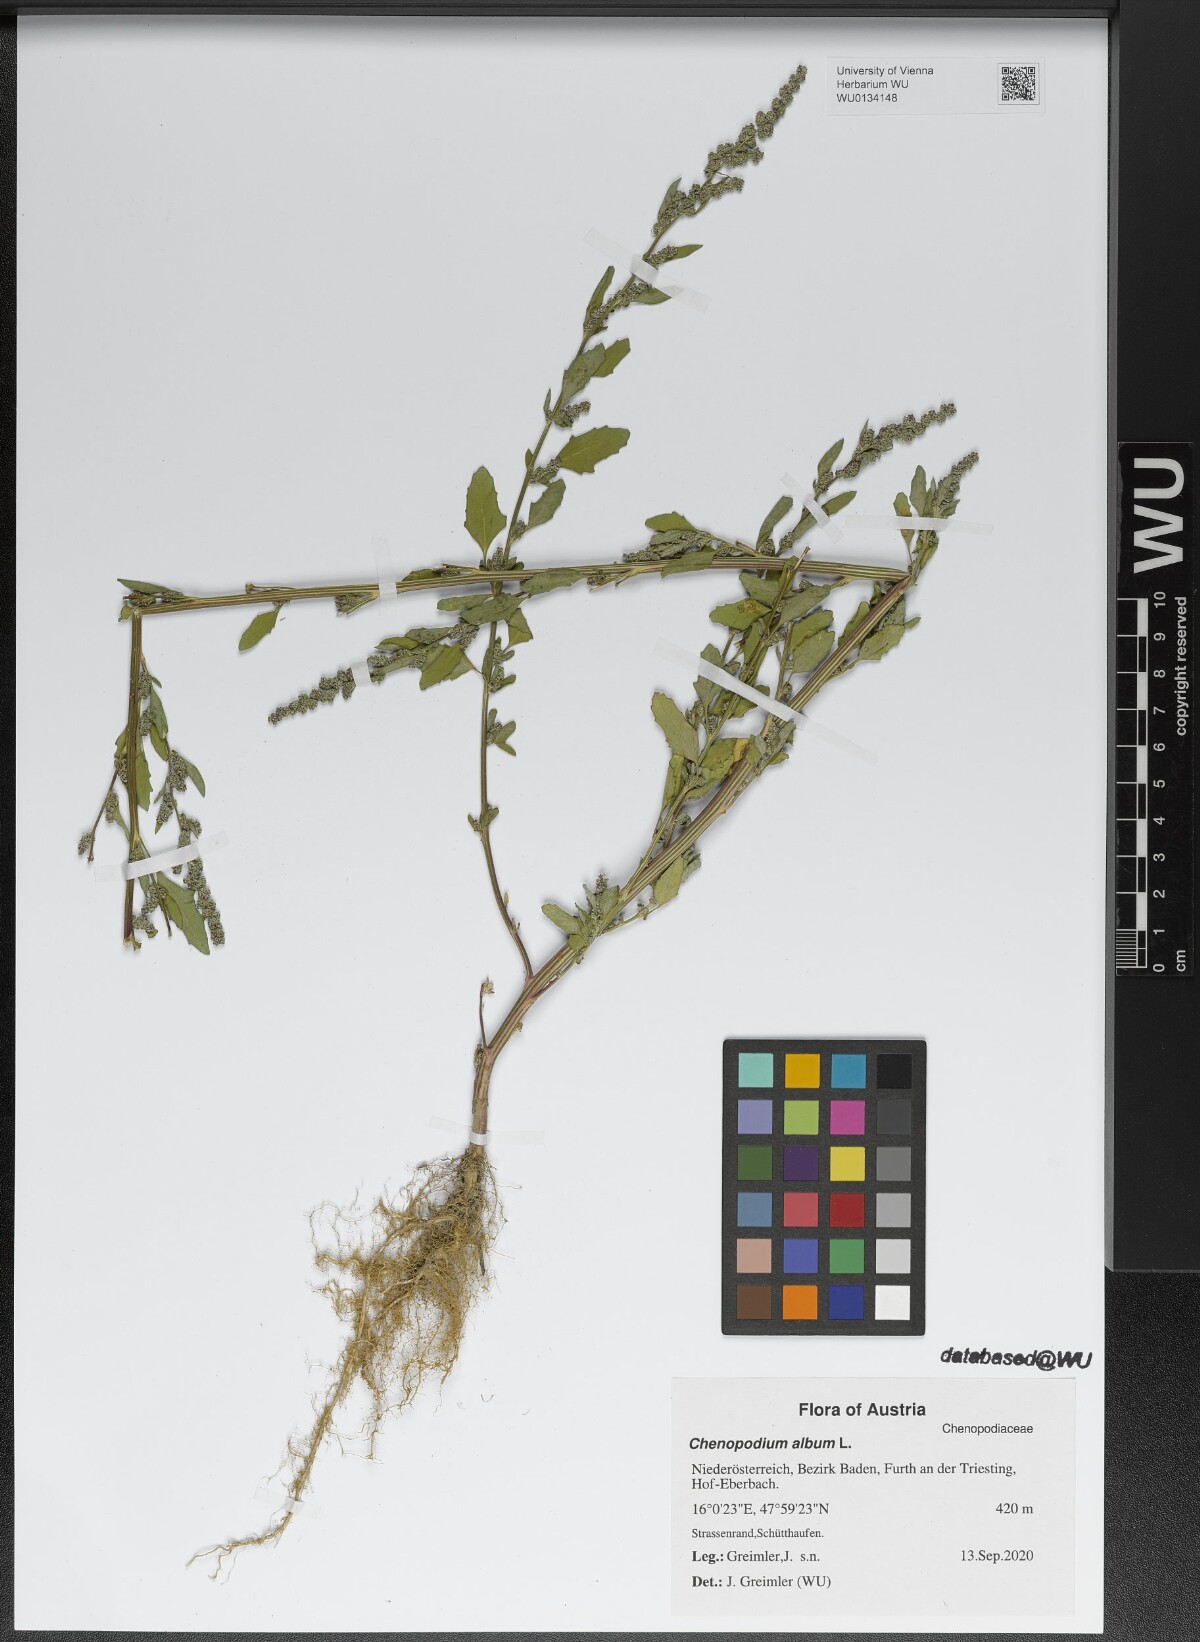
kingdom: Plantae
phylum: Tracheophyta
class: Magnoliopsida
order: Caryophyllales
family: Amaranthaceae
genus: Chenopodium
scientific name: Chenopodium album
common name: Fat-hen
